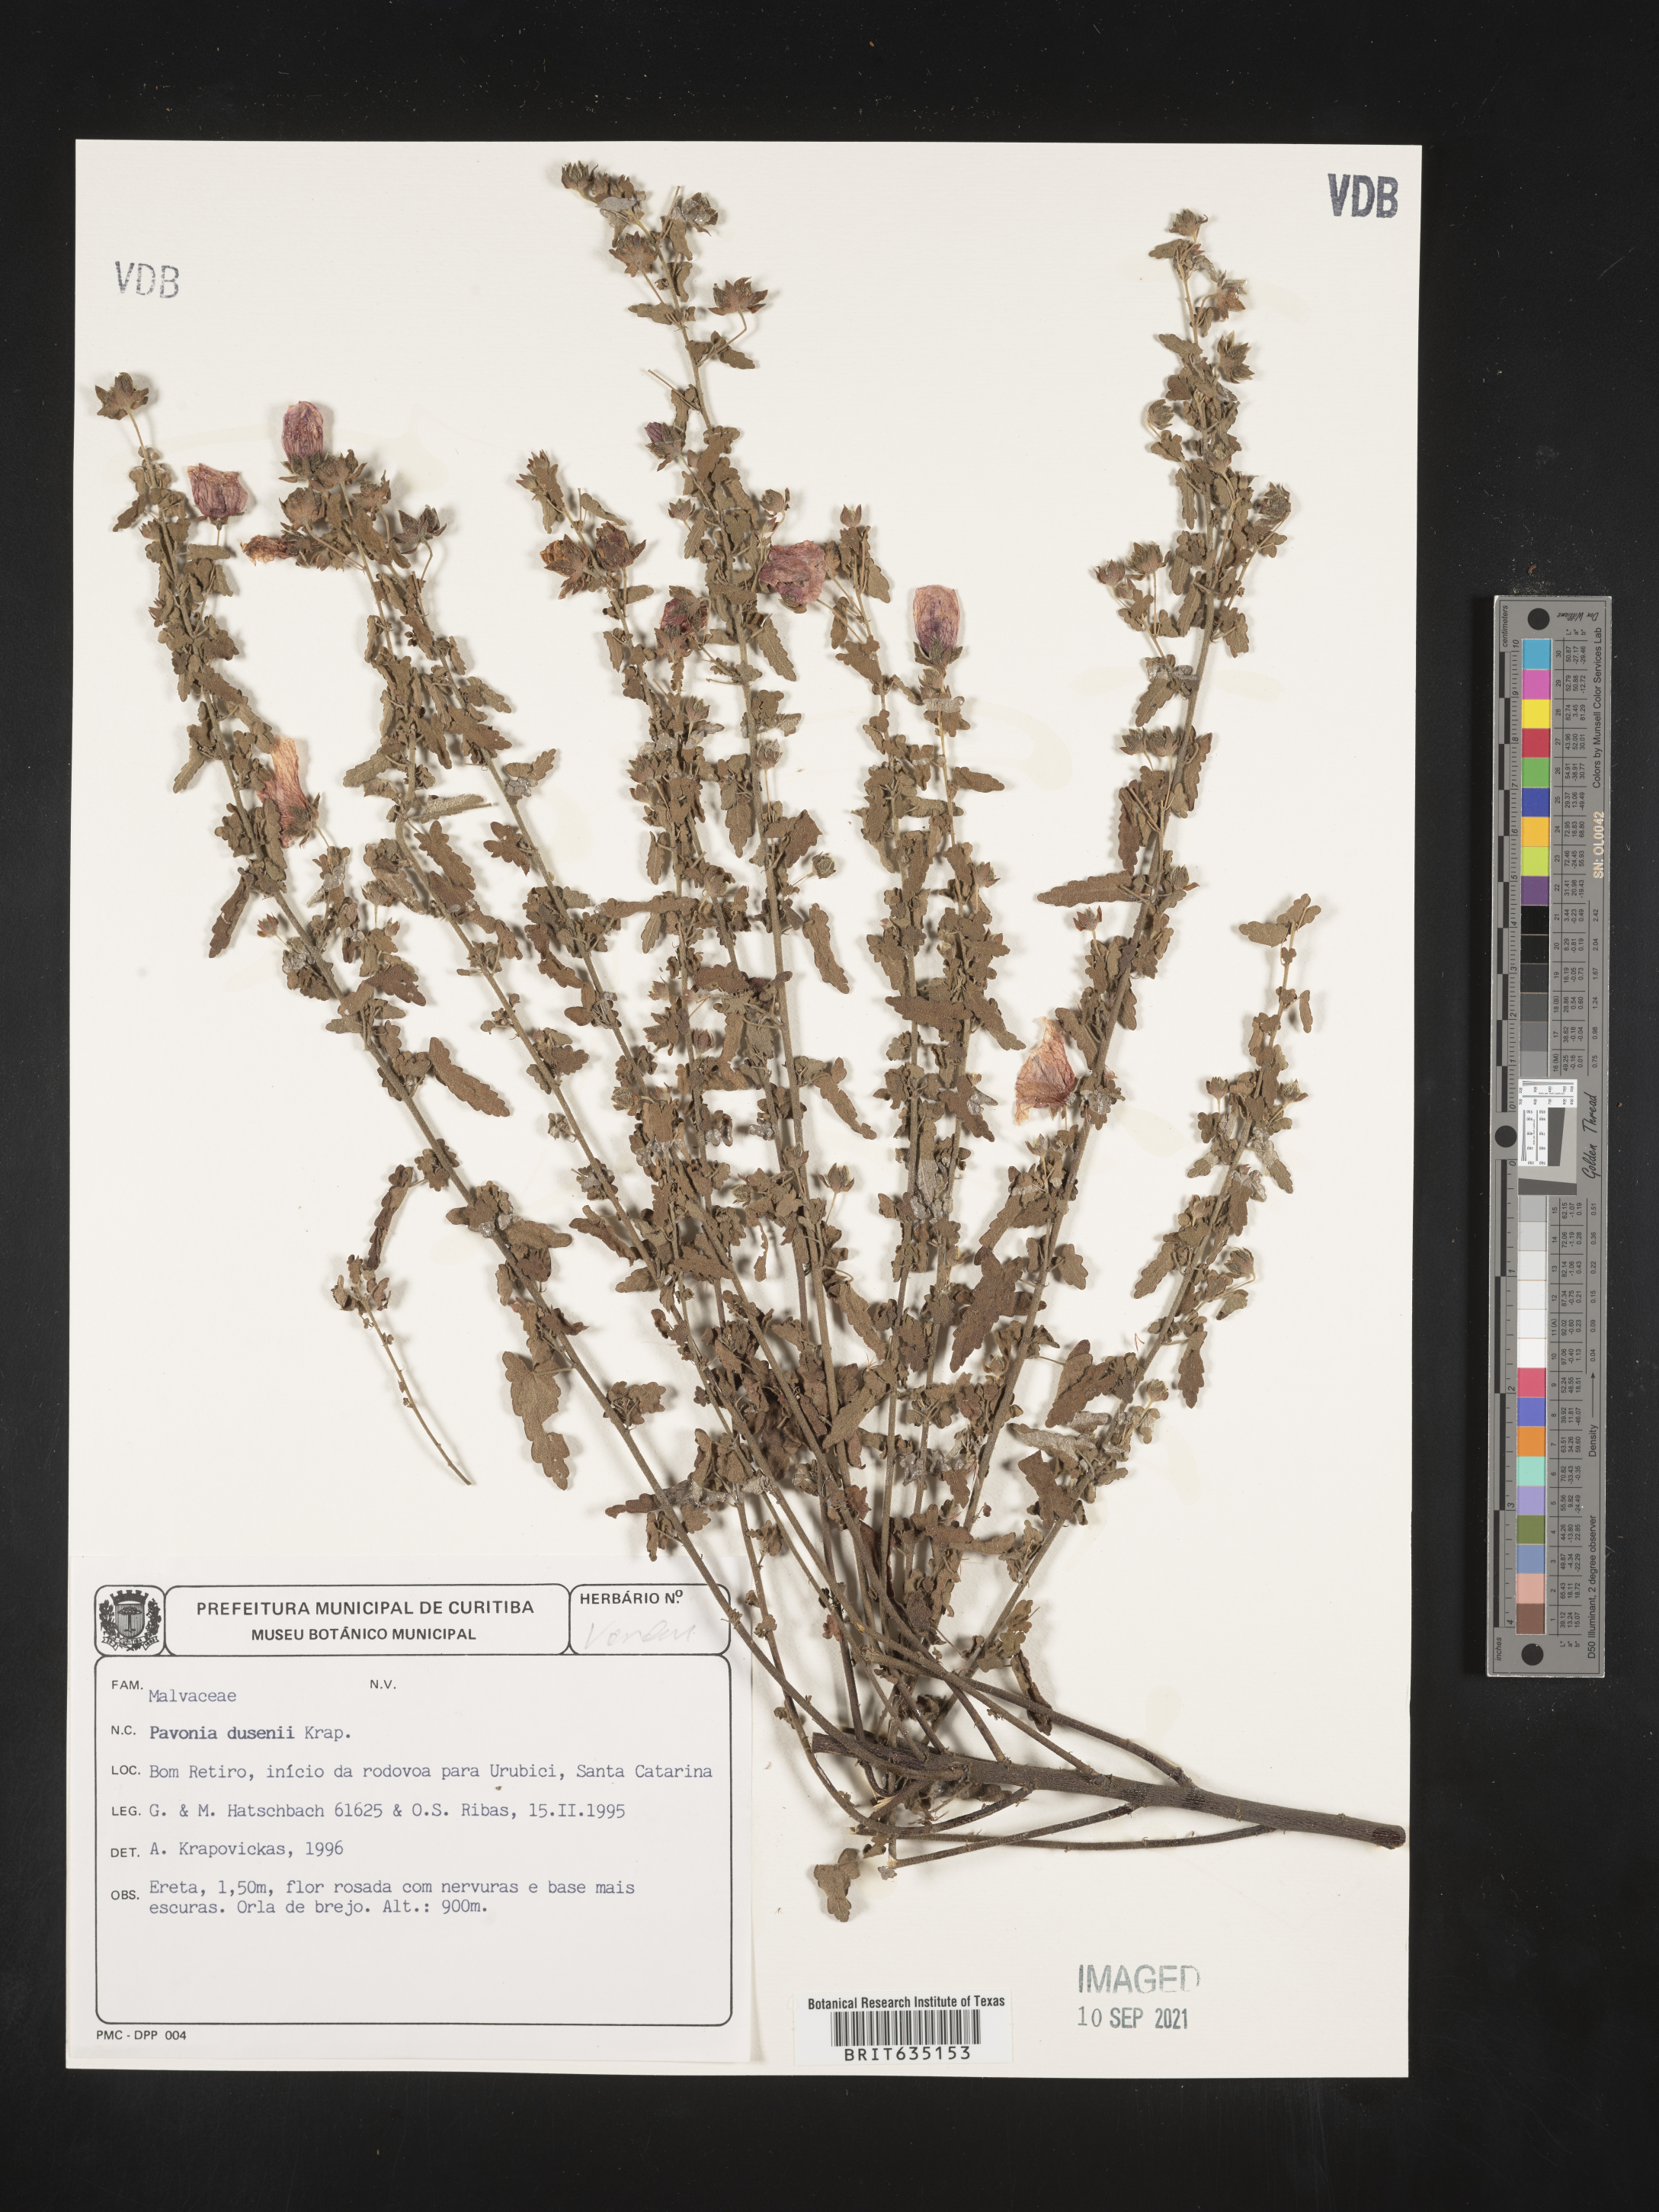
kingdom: Plantae
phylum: Tracheophyta
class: Magnoliopsida
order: Malvales
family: Malvaceae
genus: Pavonia
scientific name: Pavonia
